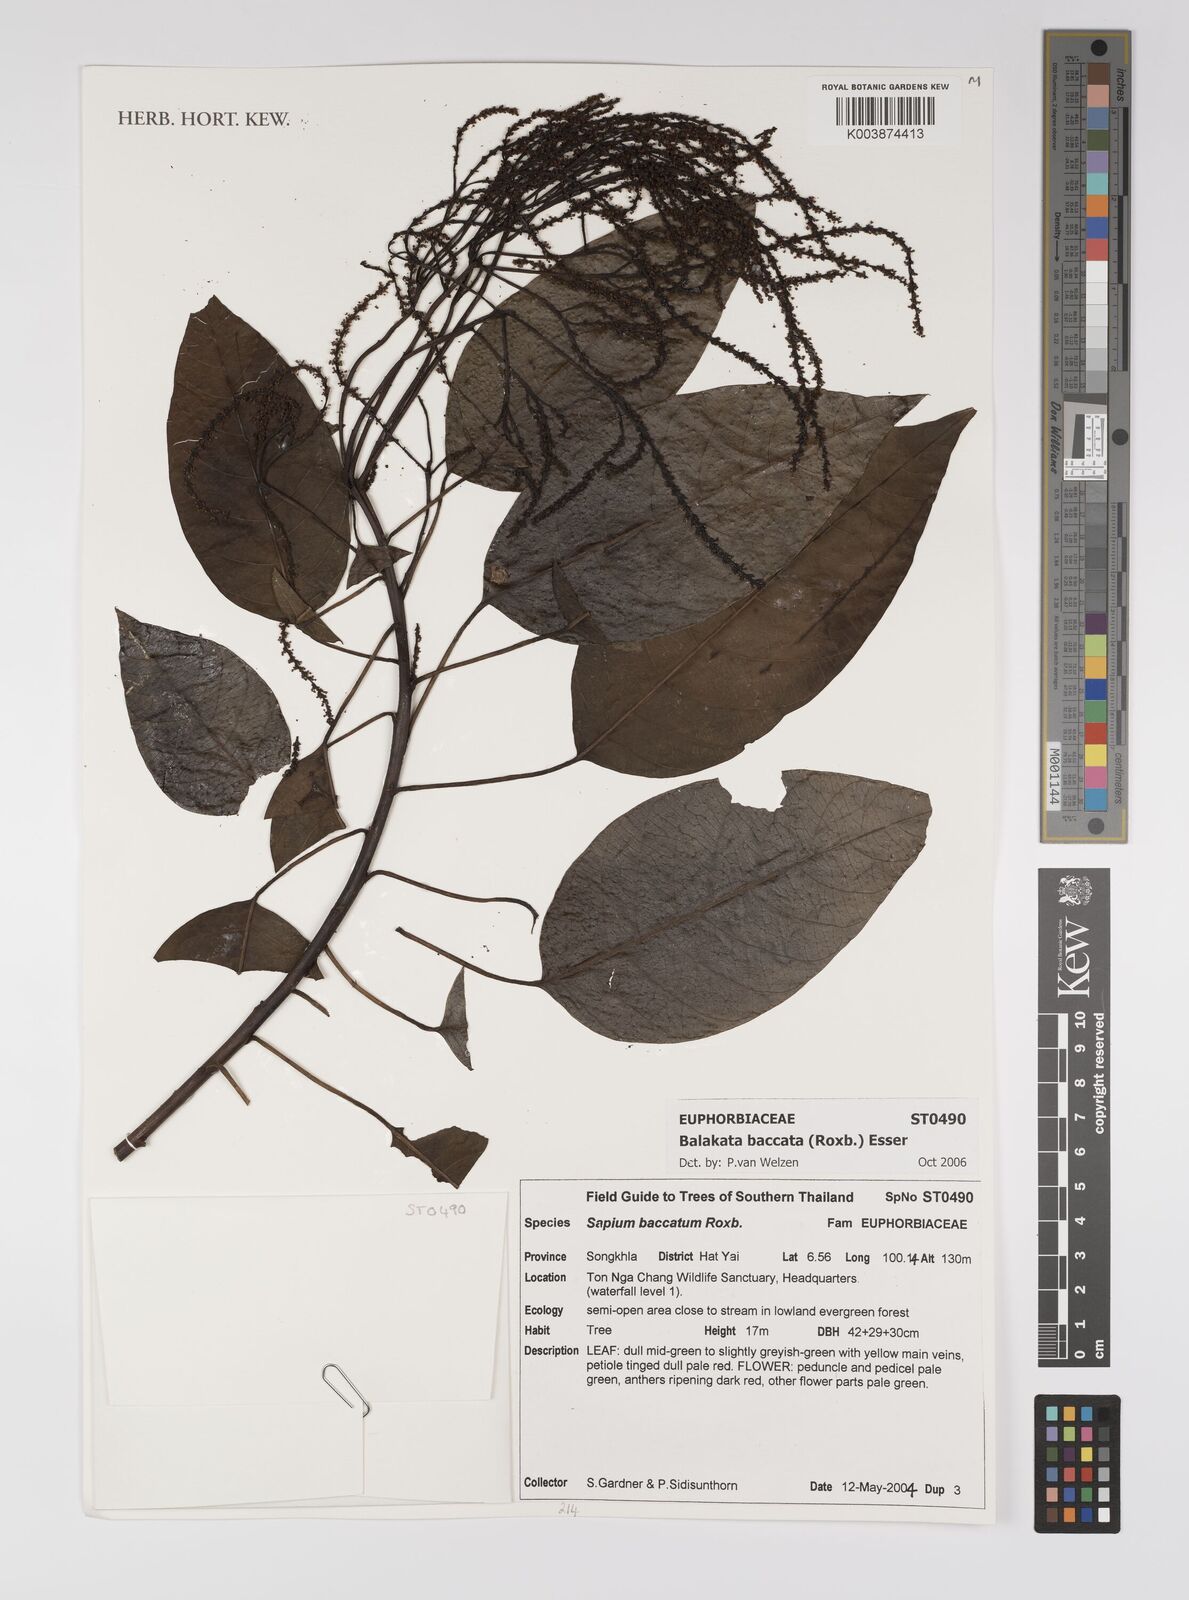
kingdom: Plantae
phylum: Tracheophyta
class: Magnoliopsida
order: Malpighiales
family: Euphorbiaceae
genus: Balakata
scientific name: Balakata baccata
